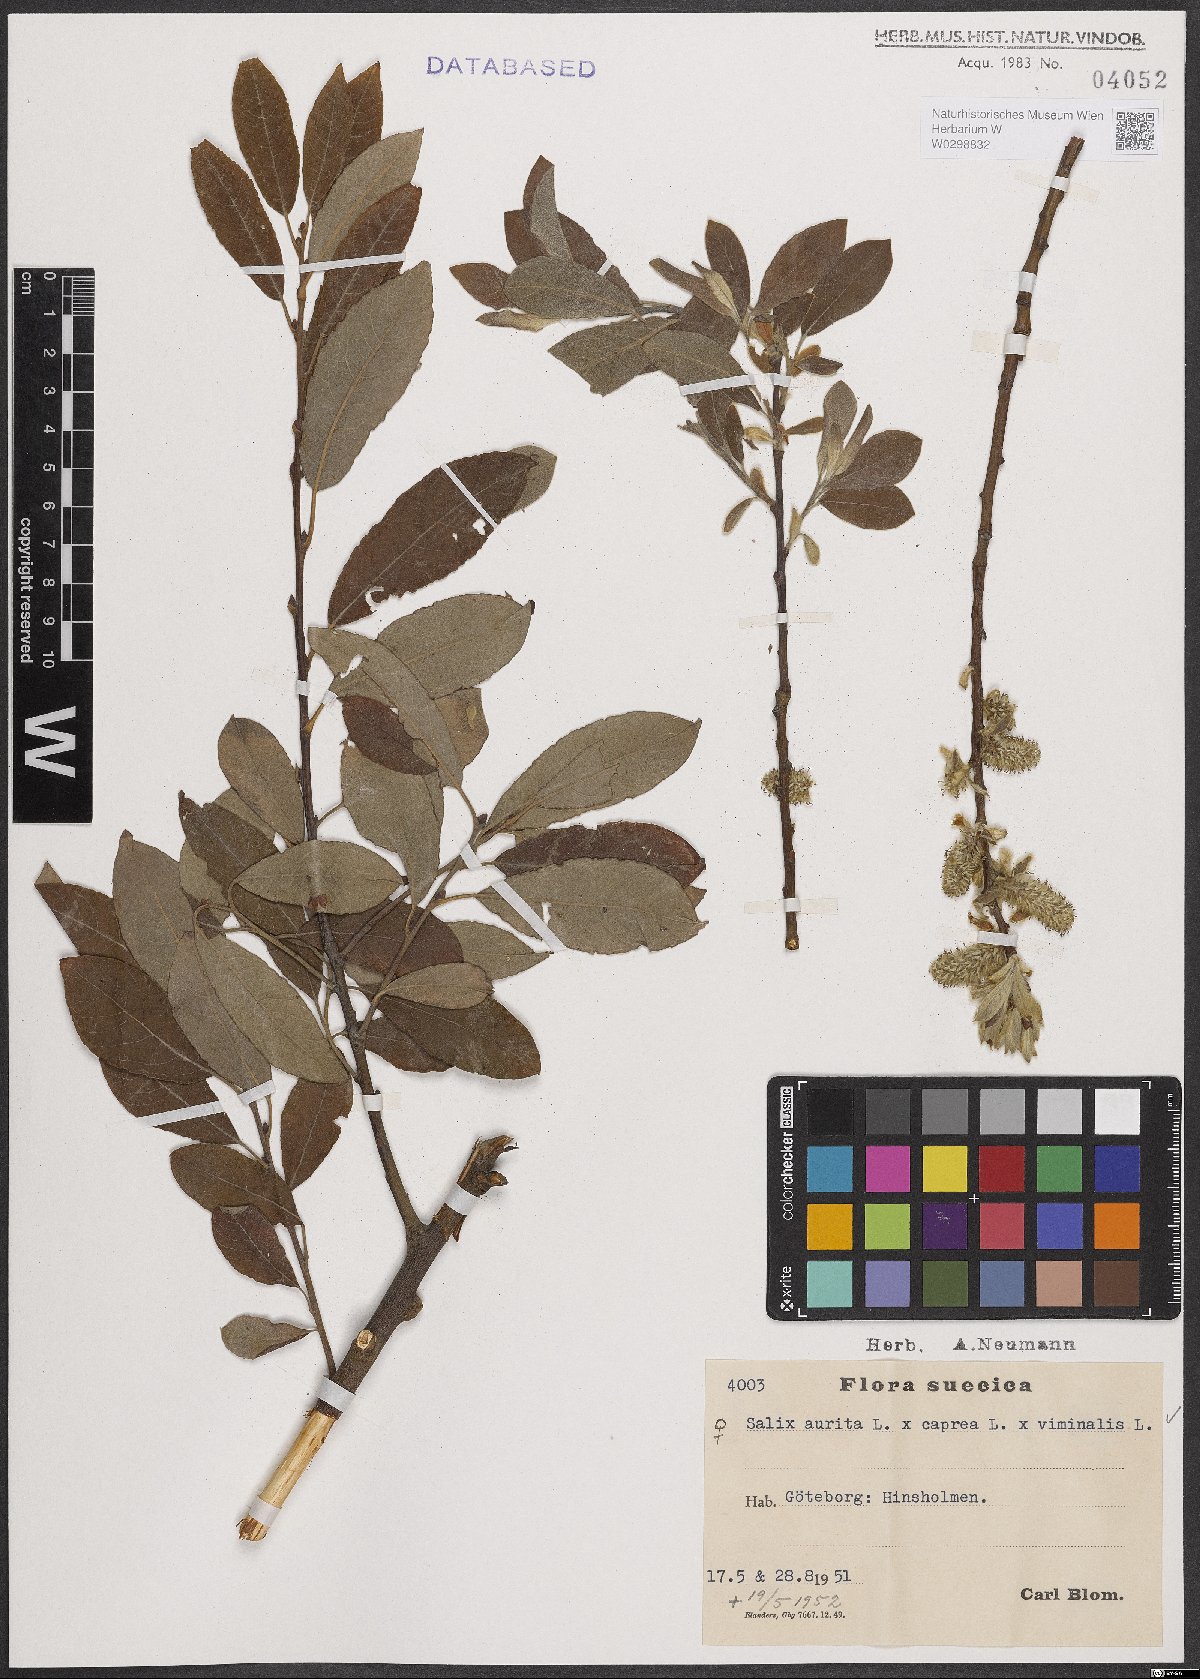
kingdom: Plantae
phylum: Tracheophyta
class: Magnoliopsida
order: Malpighiales
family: Salicaceae
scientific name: Salicaceae
